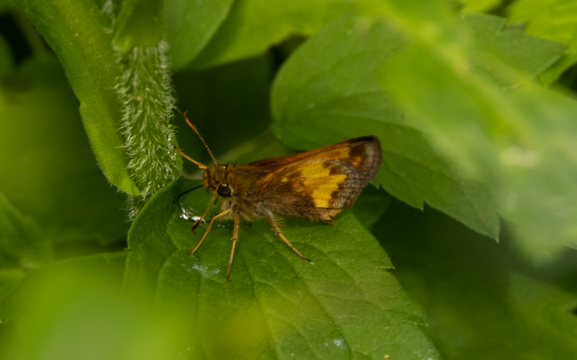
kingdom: Animalia
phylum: Arthropoda
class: Insecta
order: Lepidoptera
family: Hesperiidae
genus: Lon
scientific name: Lon hobomok
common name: Hobomok Skipper
